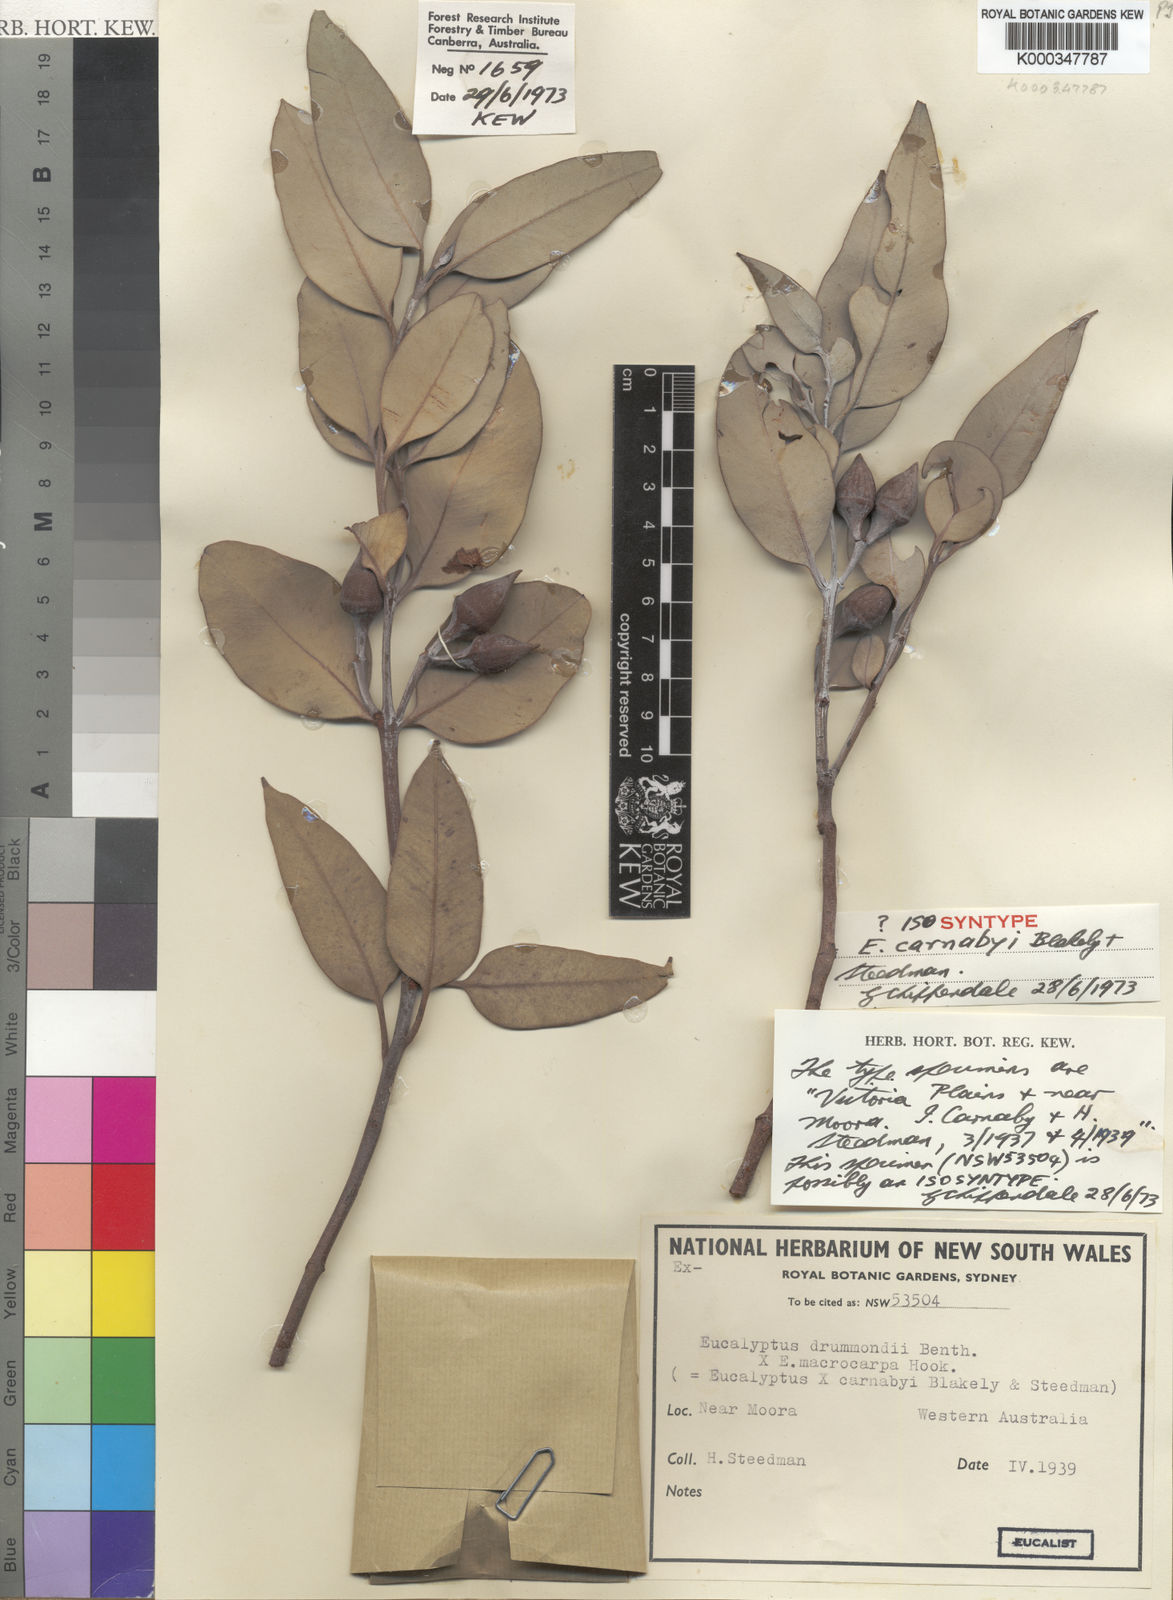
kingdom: Plantae
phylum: Tracheophyta
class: Magnoliopsida
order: Myrtales
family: Myrtaceae
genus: Eucalyptus
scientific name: Eucalyptus carnabyi
